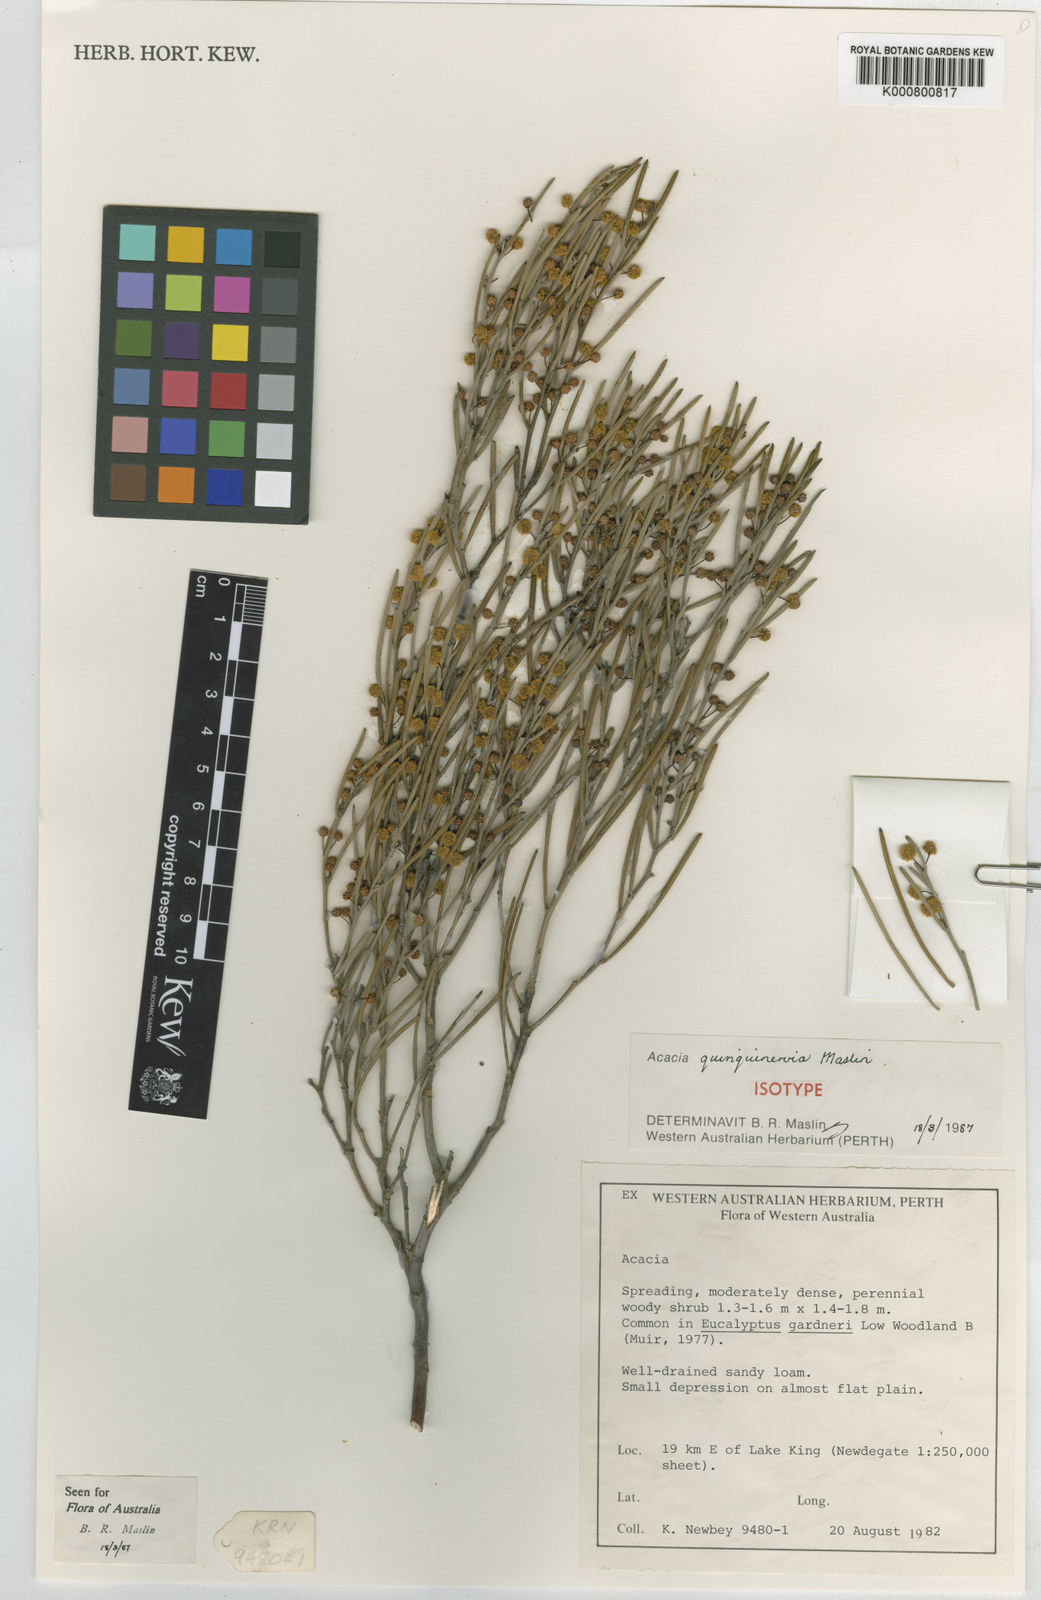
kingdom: Plantae
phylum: Tracheophyta
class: Magnoliopsida
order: Fabales
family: Fabaceae
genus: Acacia
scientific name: Acacia quinquenervia
